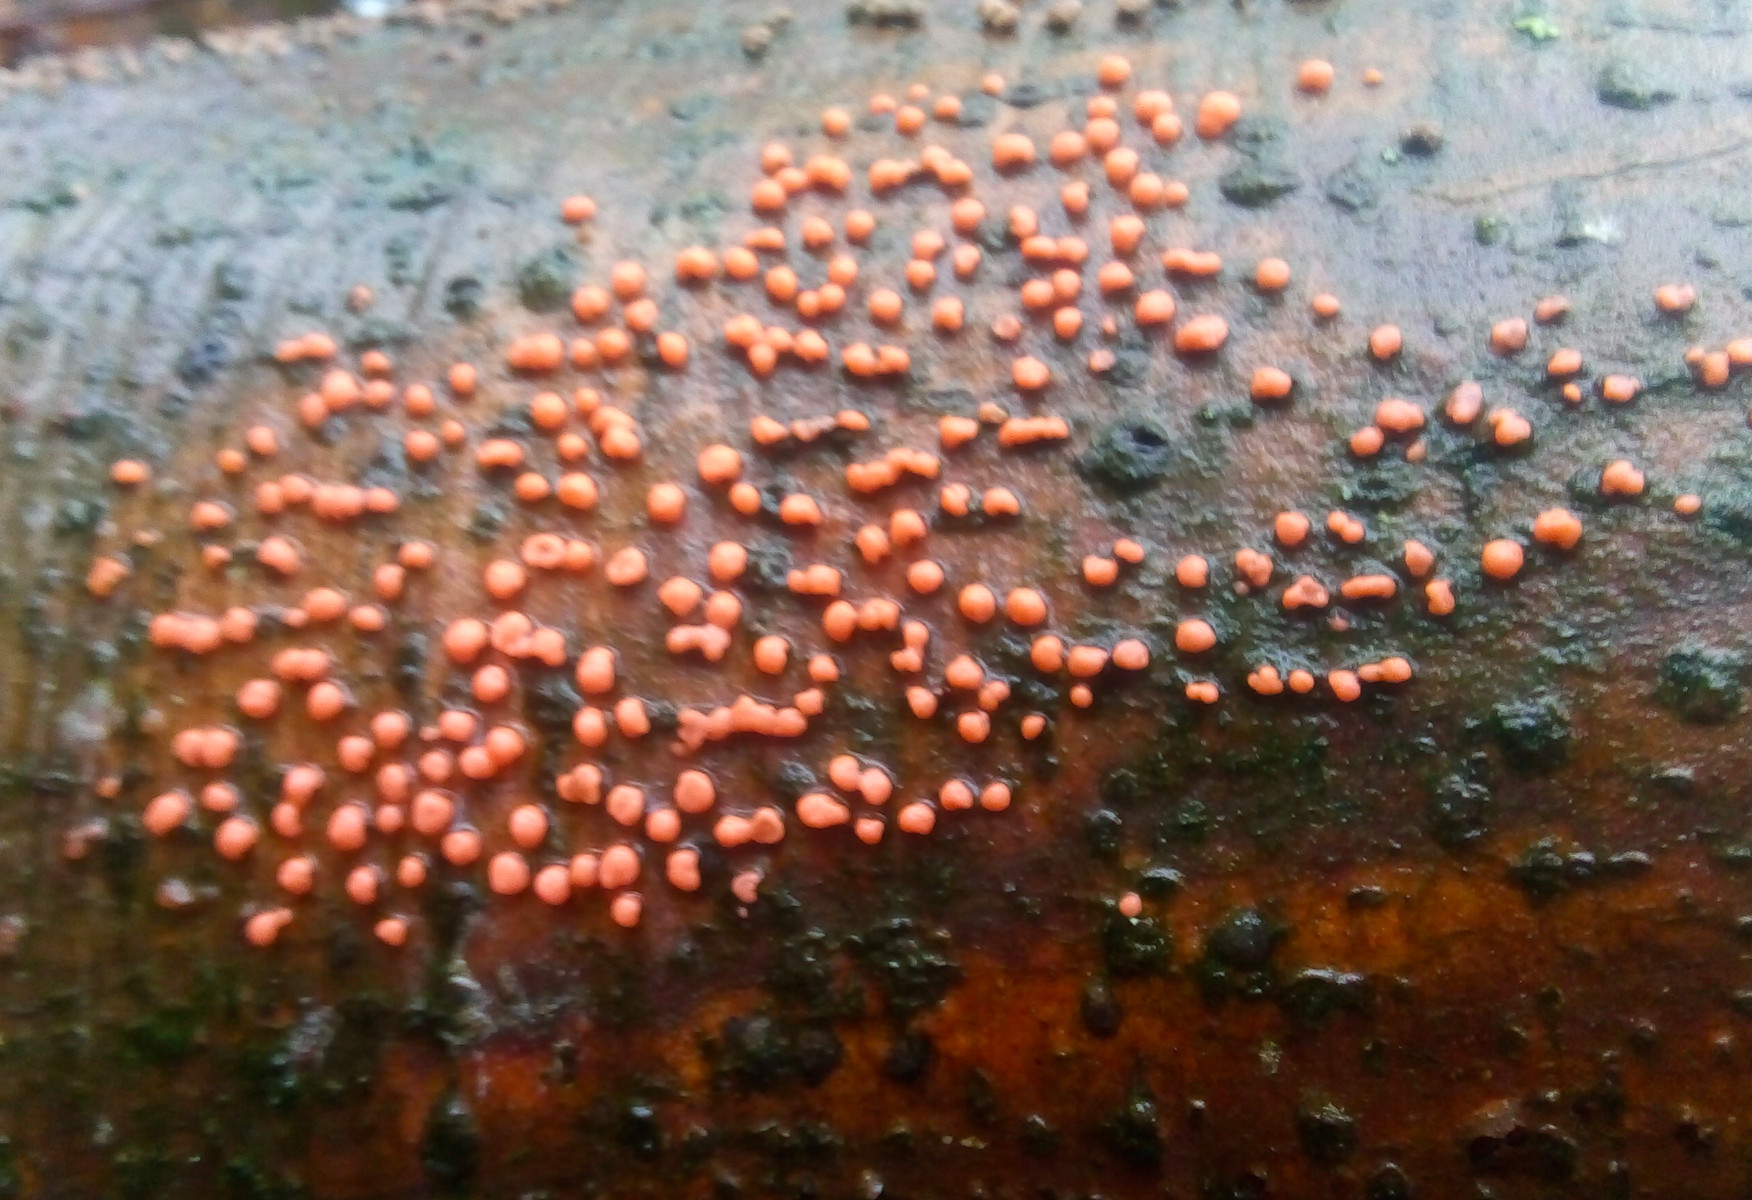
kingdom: Fungi
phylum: Ascomycota
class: Sordariomycetes
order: Hypocreales
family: Nectriaceae
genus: Nectria
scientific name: Nectria cinnabarina
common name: almindelig cinnobersvamp
